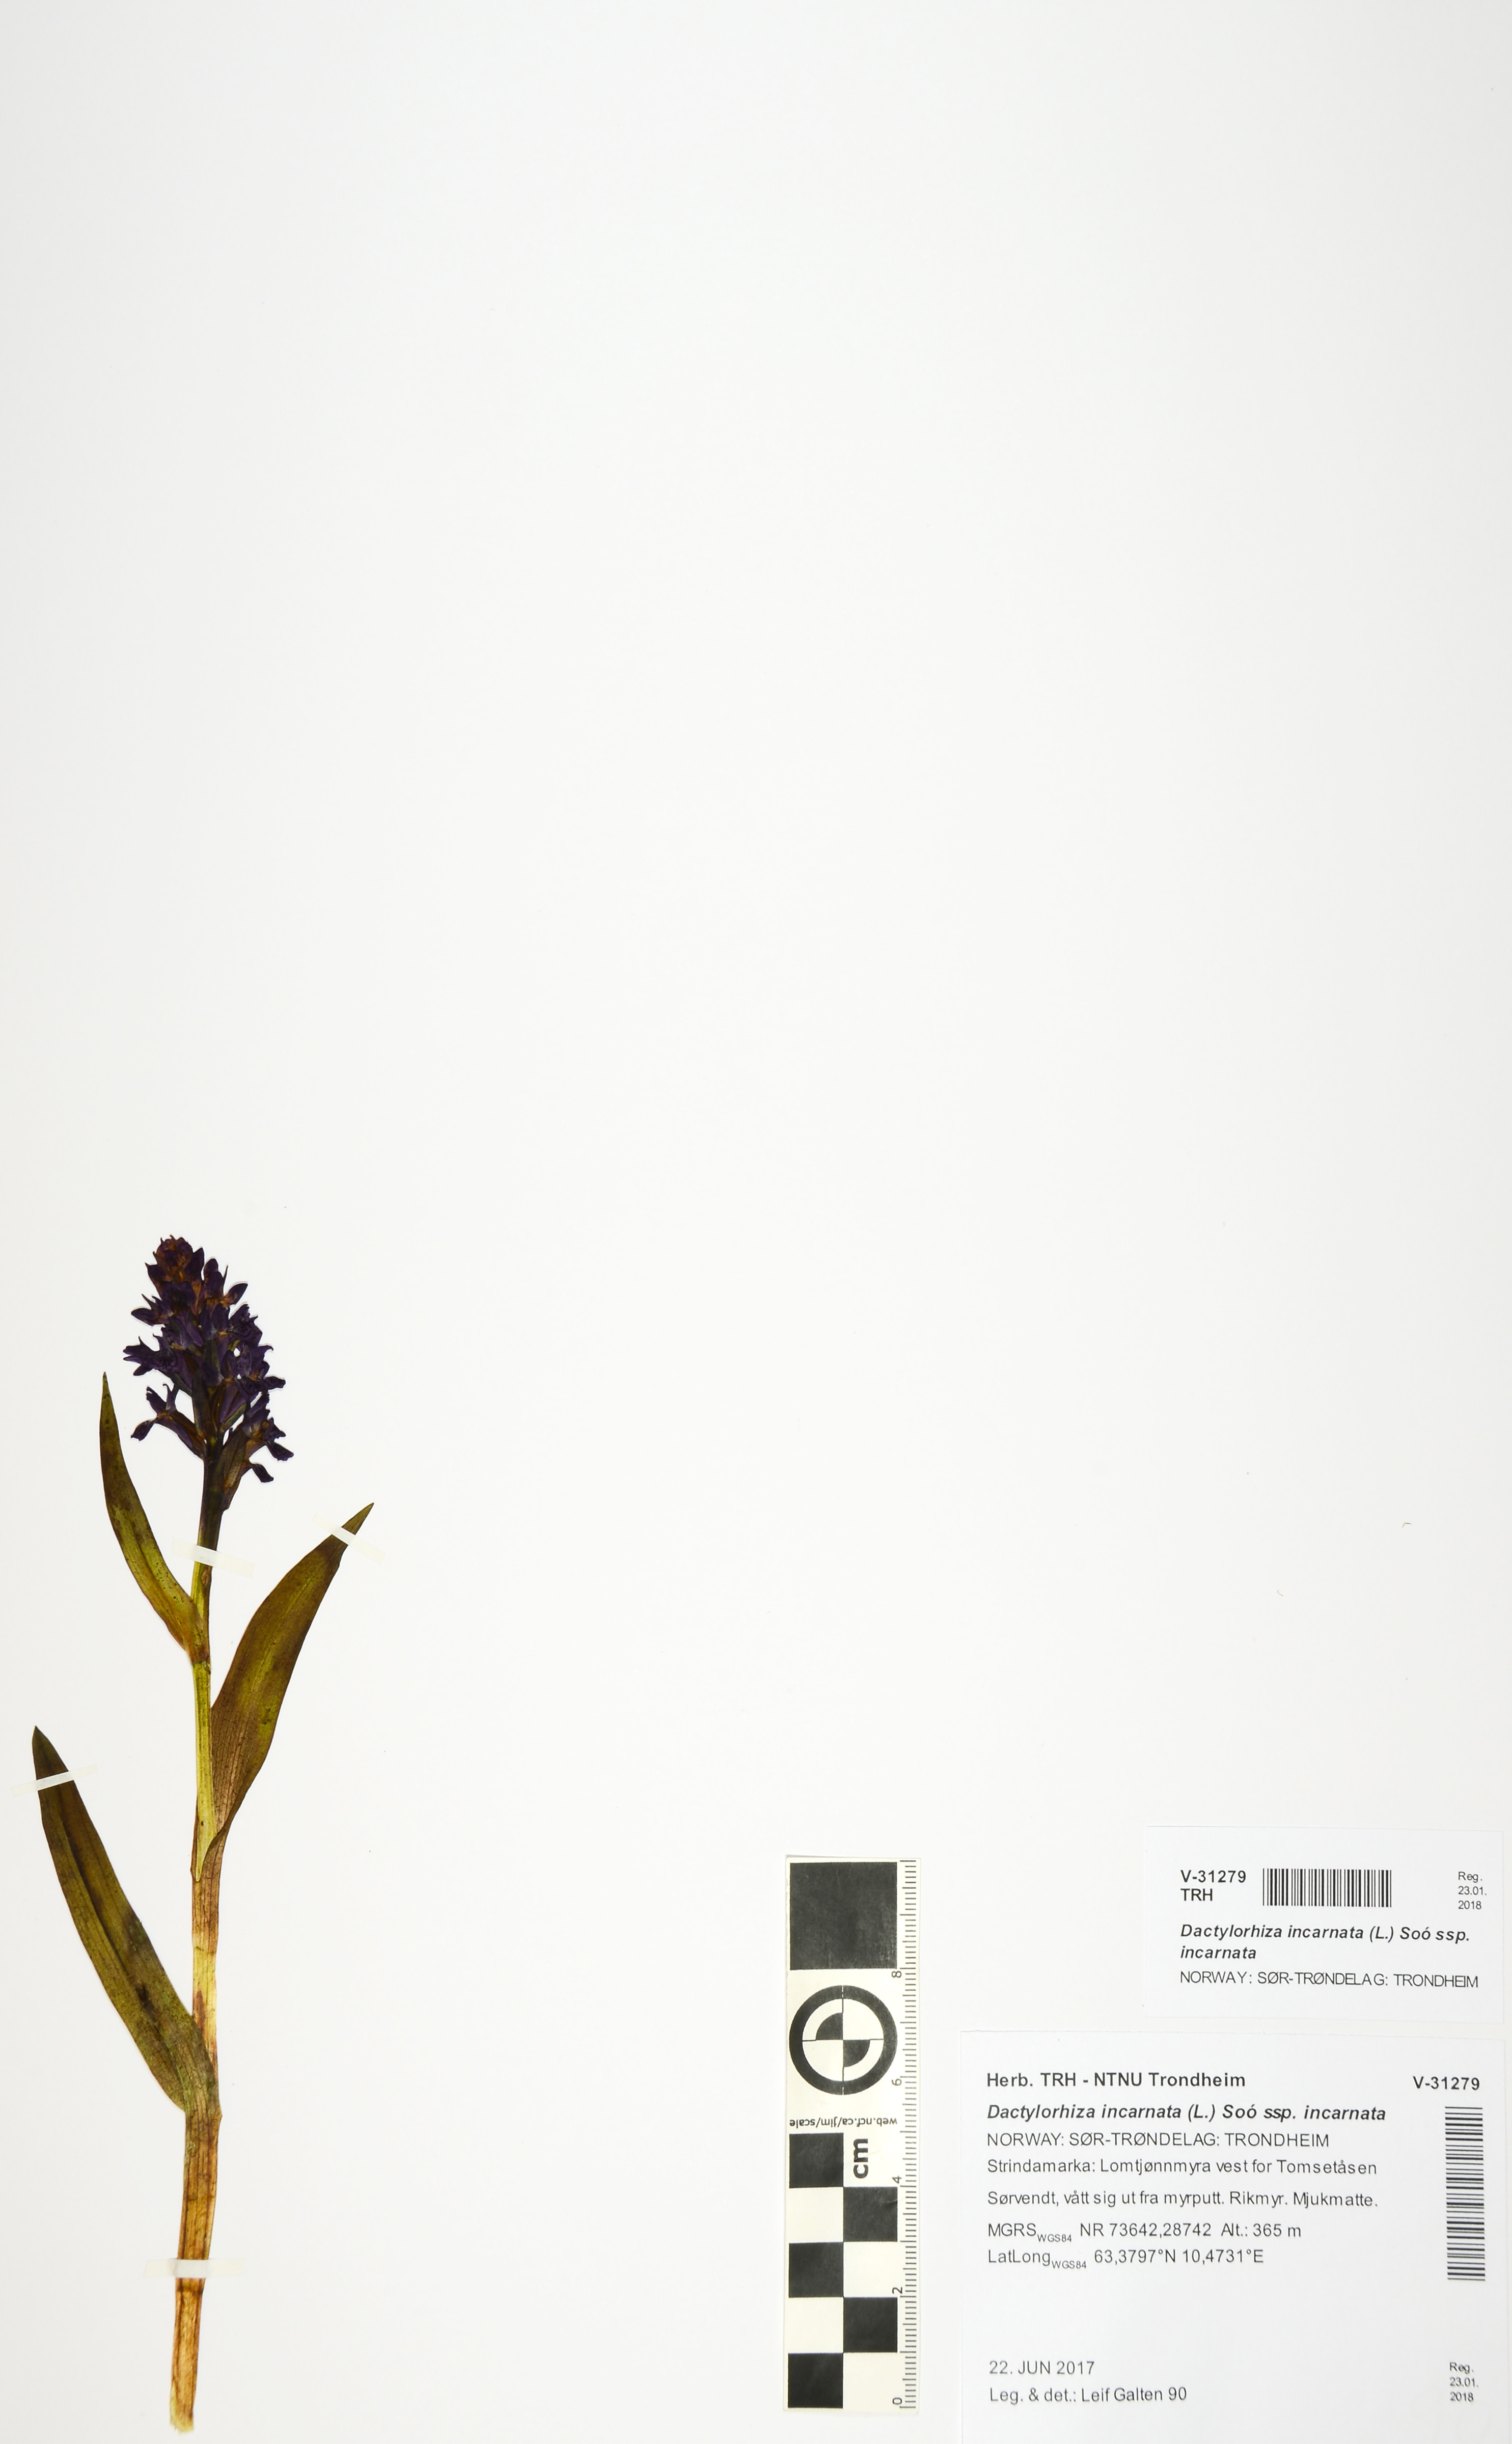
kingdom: Plantae
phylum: Tracheophyta
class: Liliopsida
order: Asparagales
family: Orchidaceae
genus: Dactylorhiza
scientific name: Dactylorhiza incarnata
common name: Early marsh-orchid
